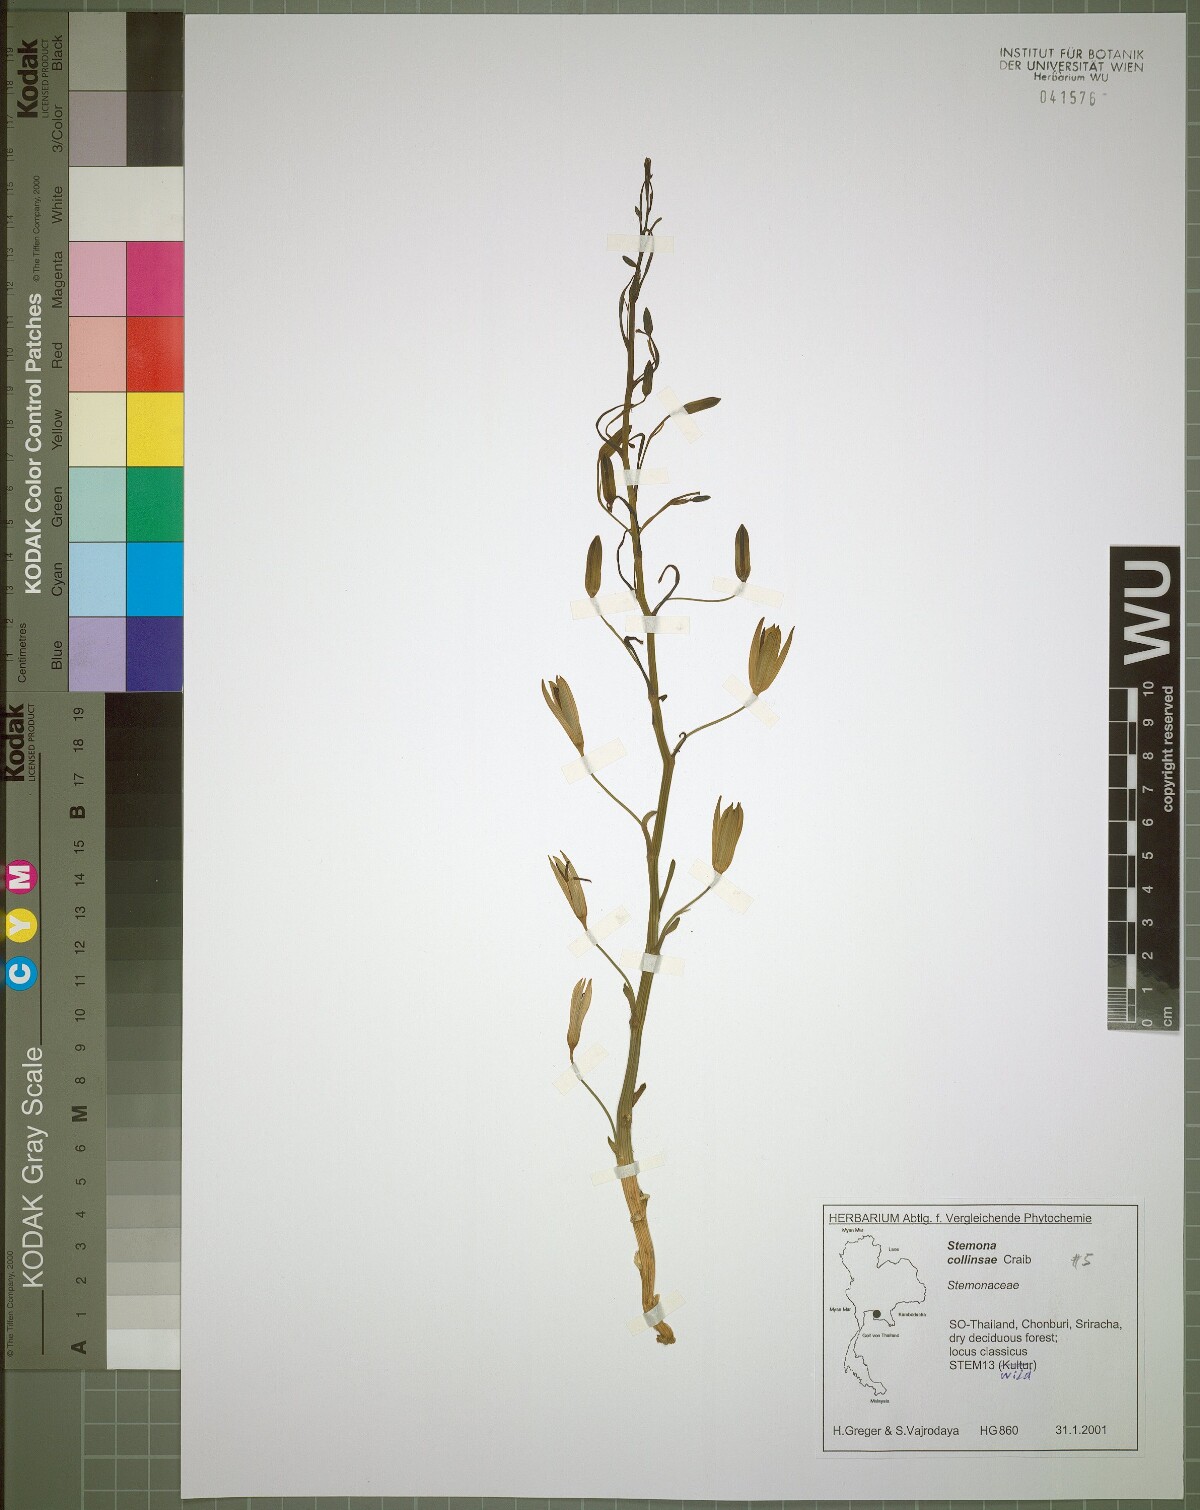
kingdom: Plantae
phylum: Tracheophyta
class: Liliopsida
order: Pandanales
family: Stemonaceae
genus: Stemona
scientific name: Stemona collinsiae
